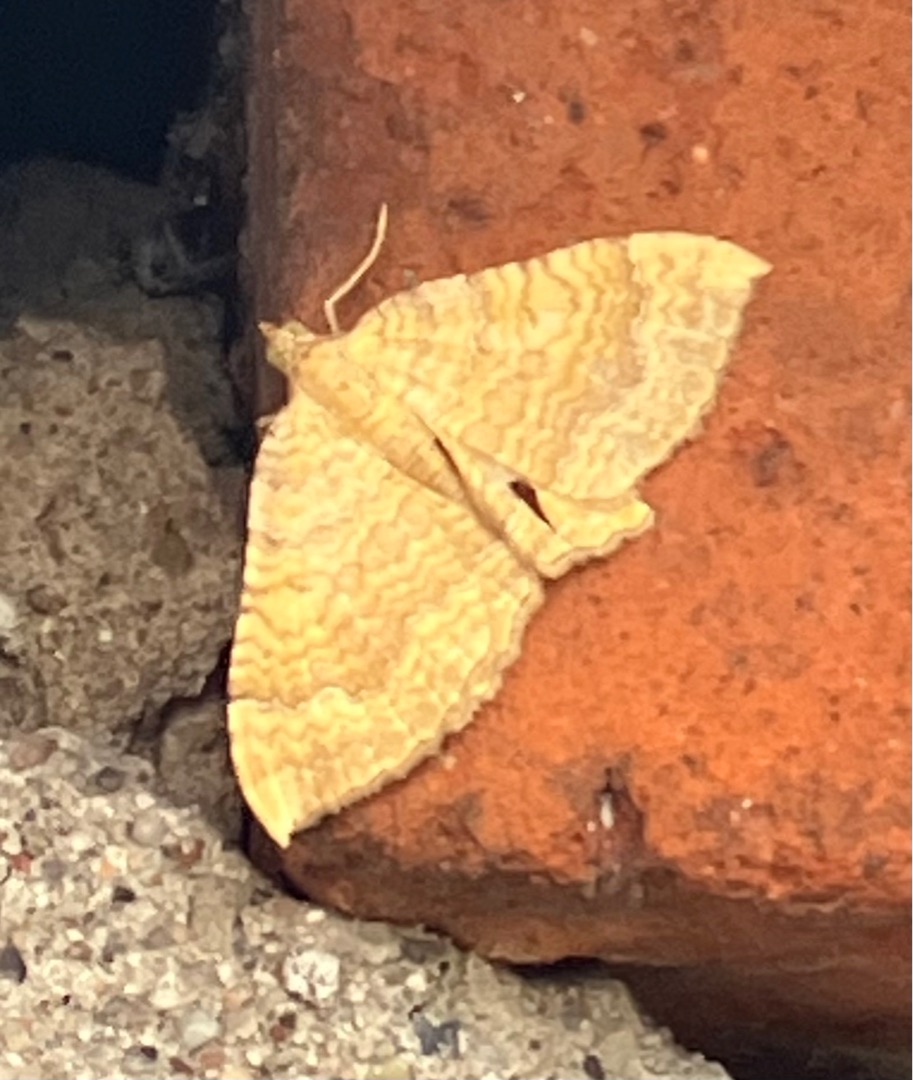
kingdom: Animalia
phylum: Arthropoda
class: Insecta
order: Lepidoptera
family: Geometridae
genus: Camptogramma
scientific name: Camptogramma bilineata
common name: Okkergul bladmåler
